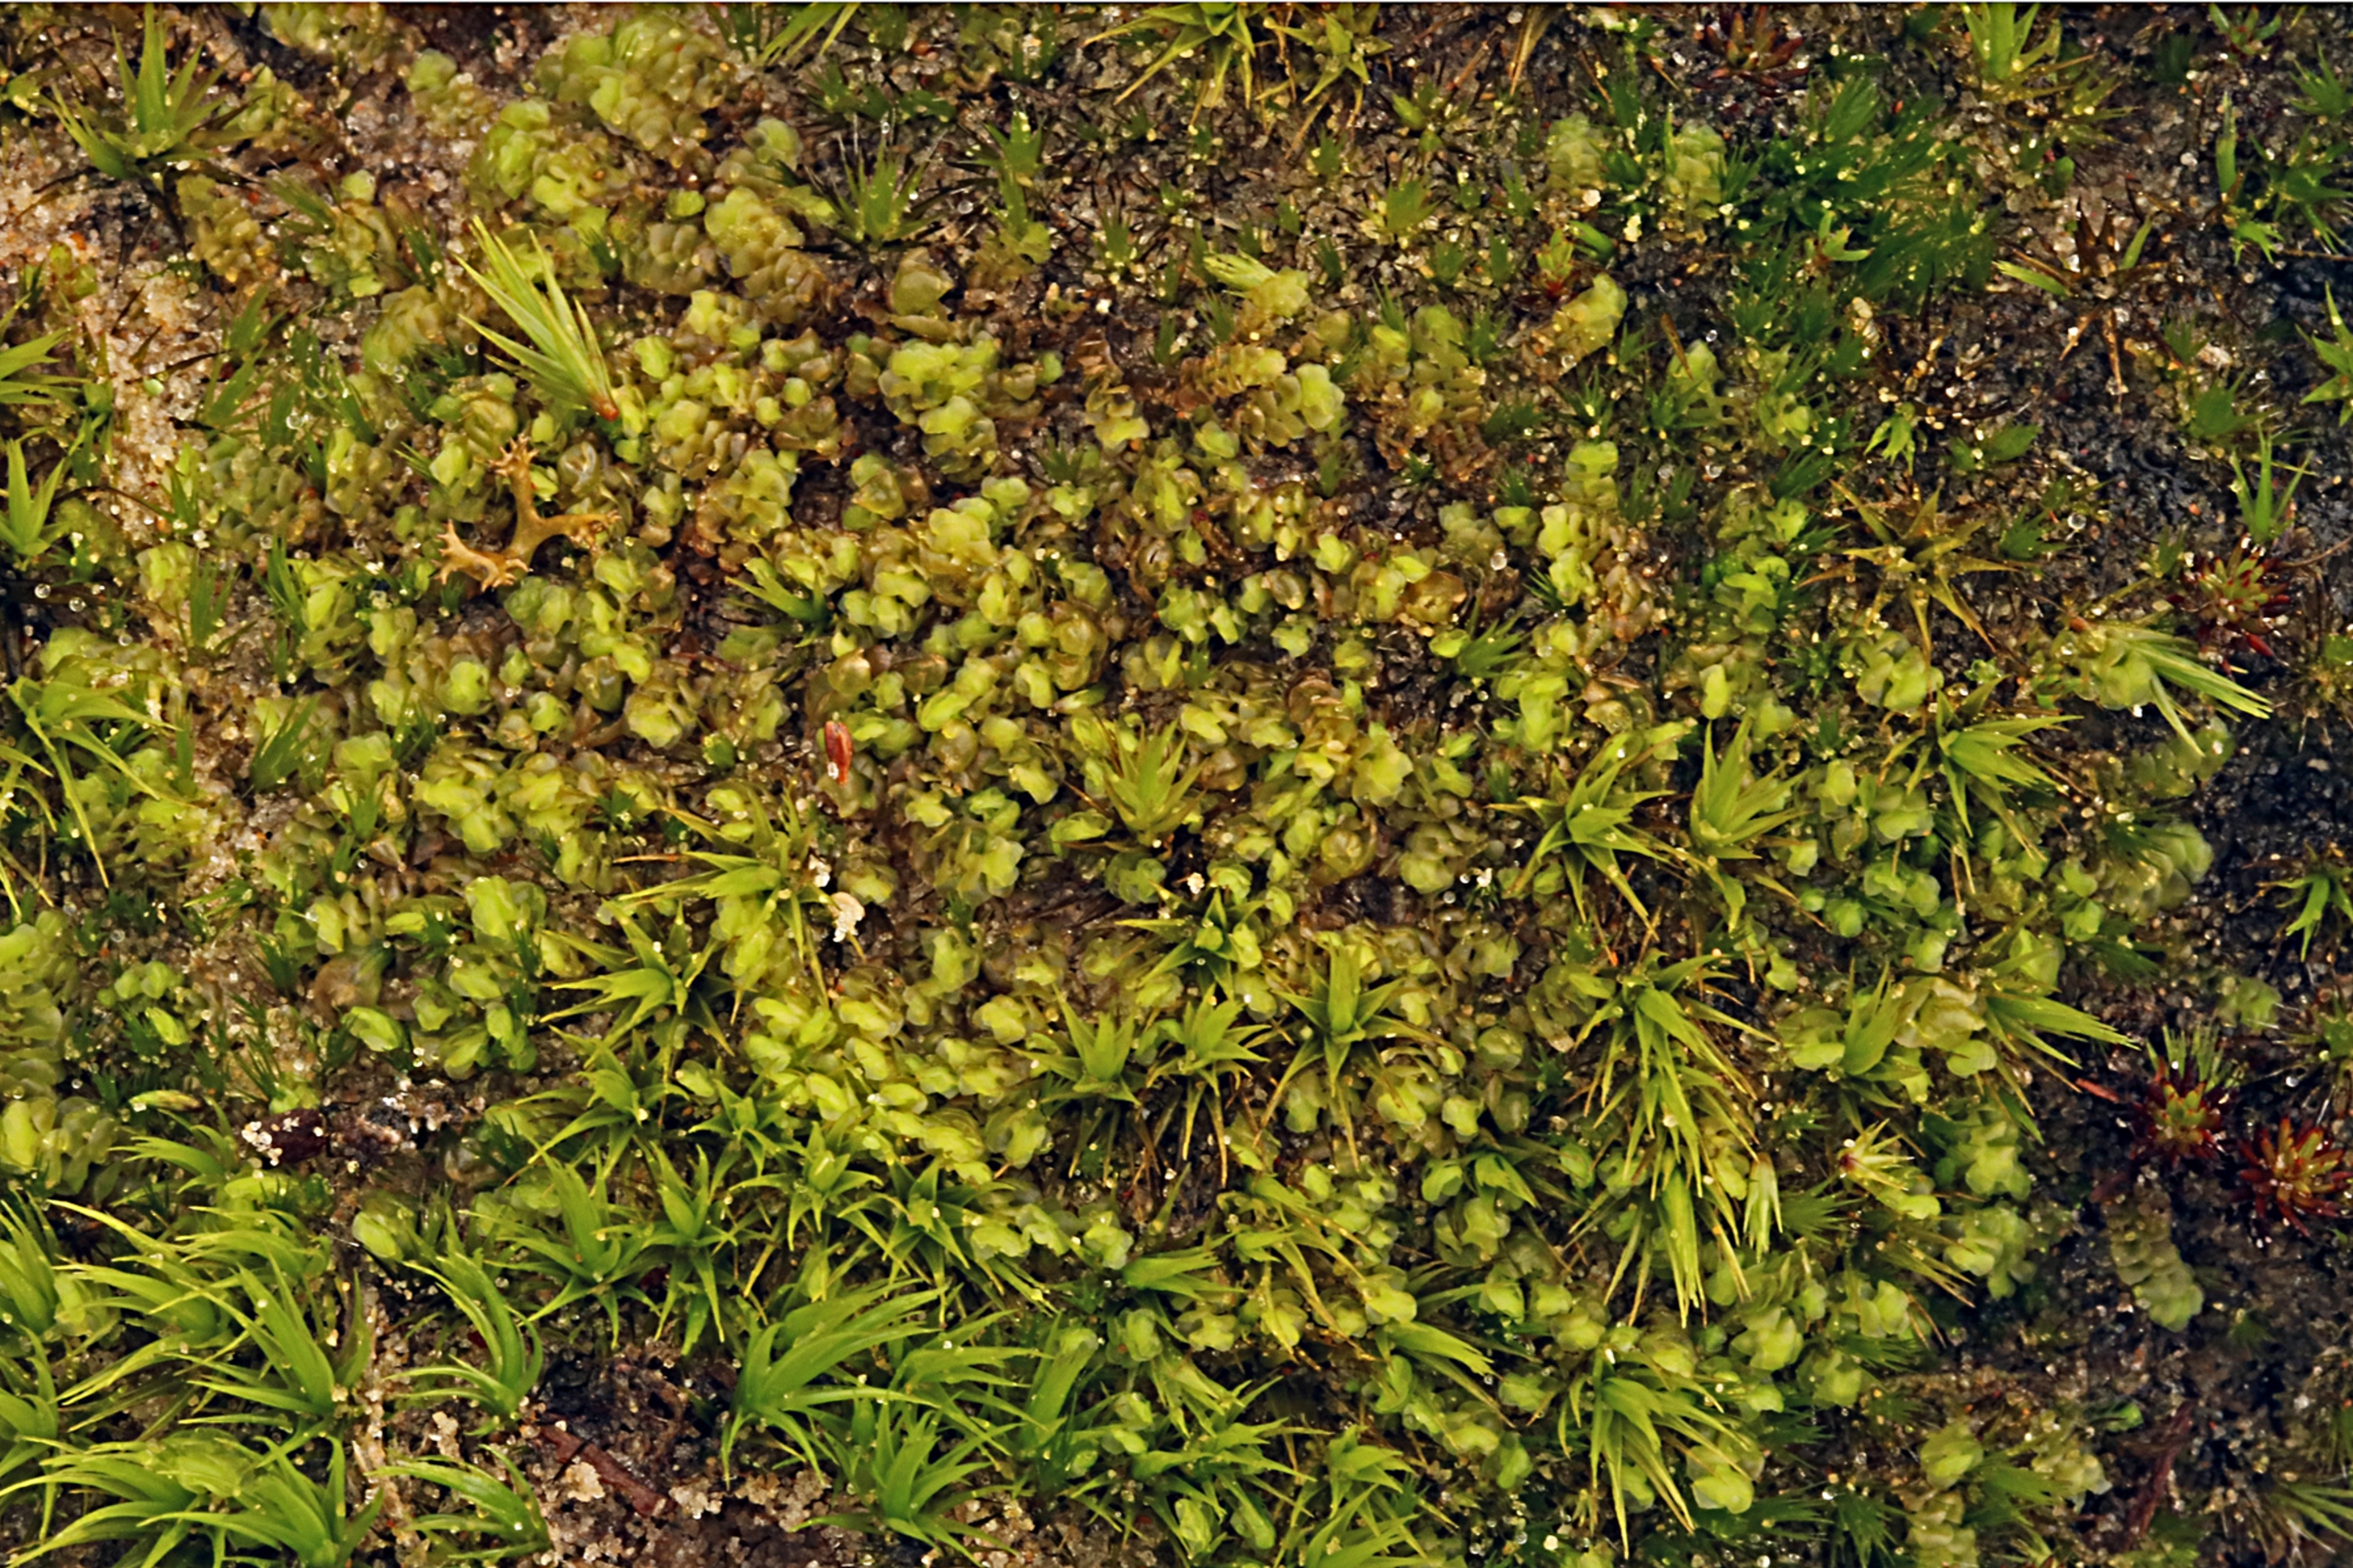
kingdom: Plantae
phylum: Marchantiophyta
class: Jungermanniopsida
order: Jungermanniales
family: Scapaniaceae
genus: Scapania
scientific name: Scapania compacta
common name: Tæt tveblad
